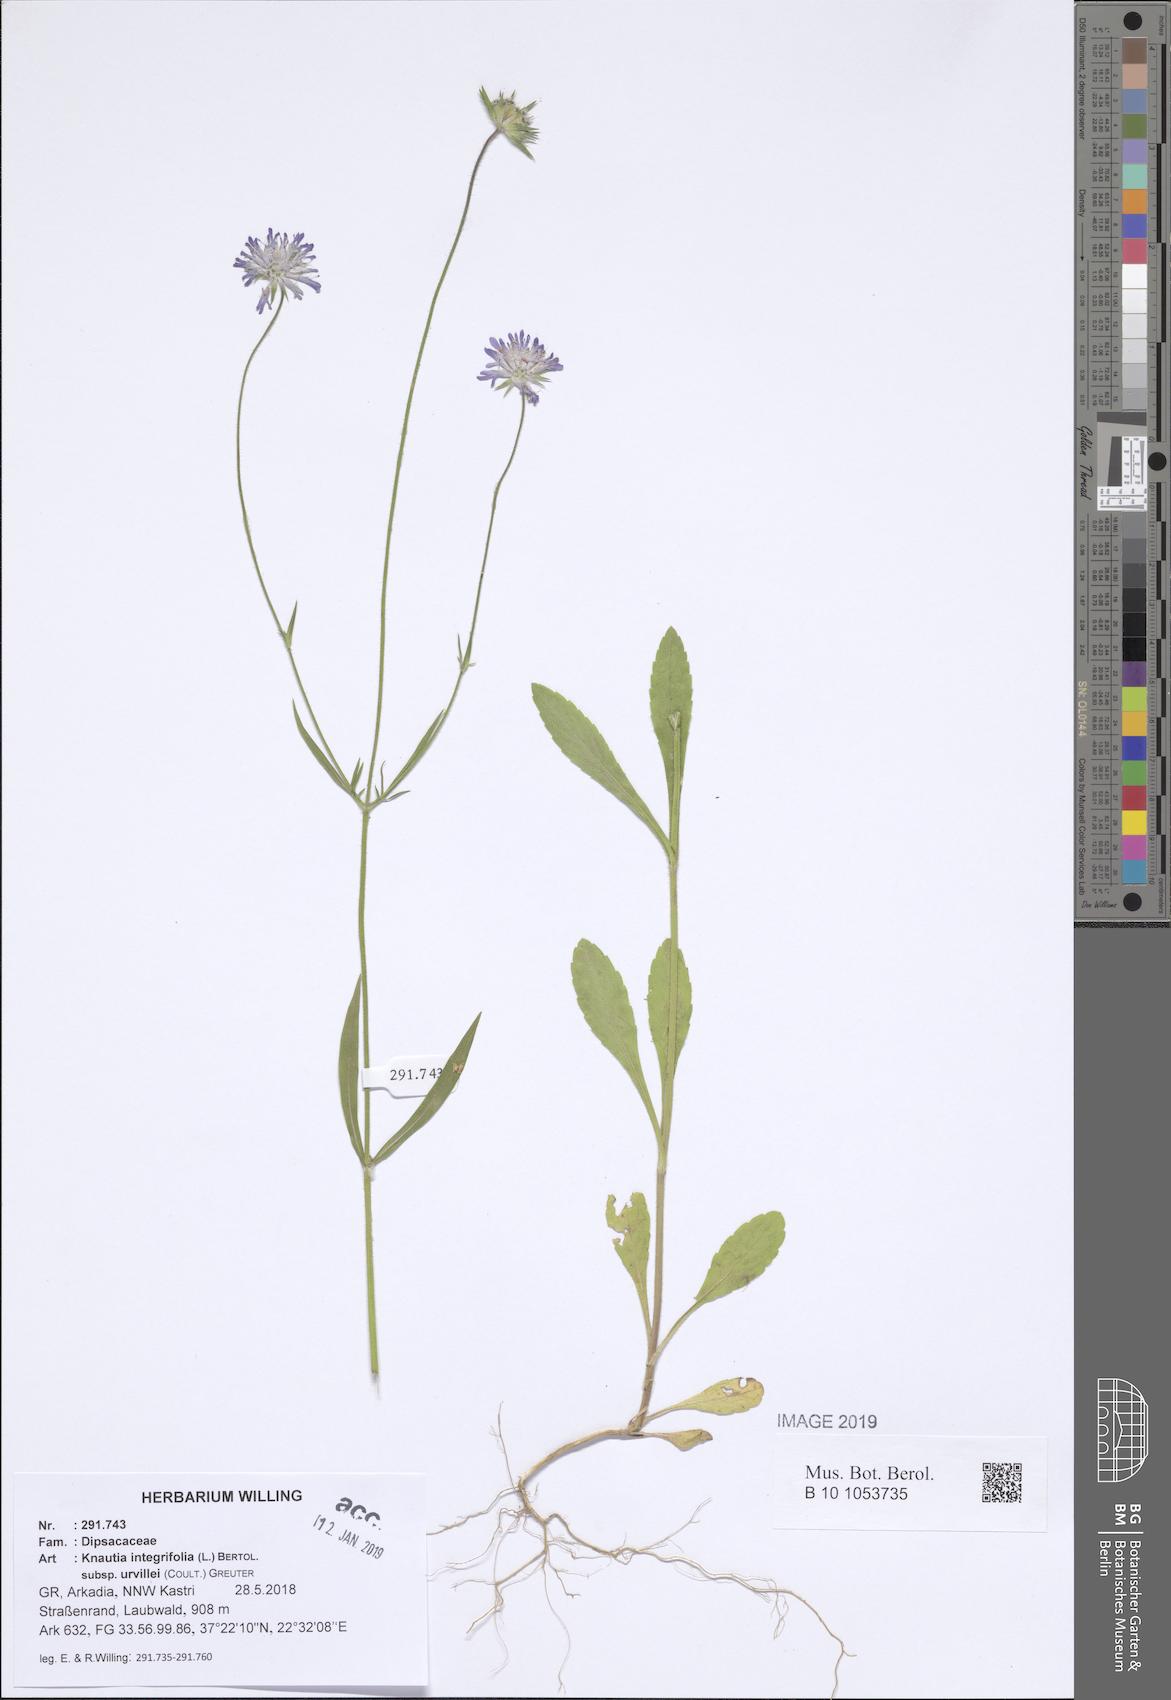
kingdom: Plantae
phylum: Tracheophyta
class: Magnoliopsida
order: Dipsacales
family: Caprifoliaceae
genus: Knautia
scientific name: Knautia integrifolia
